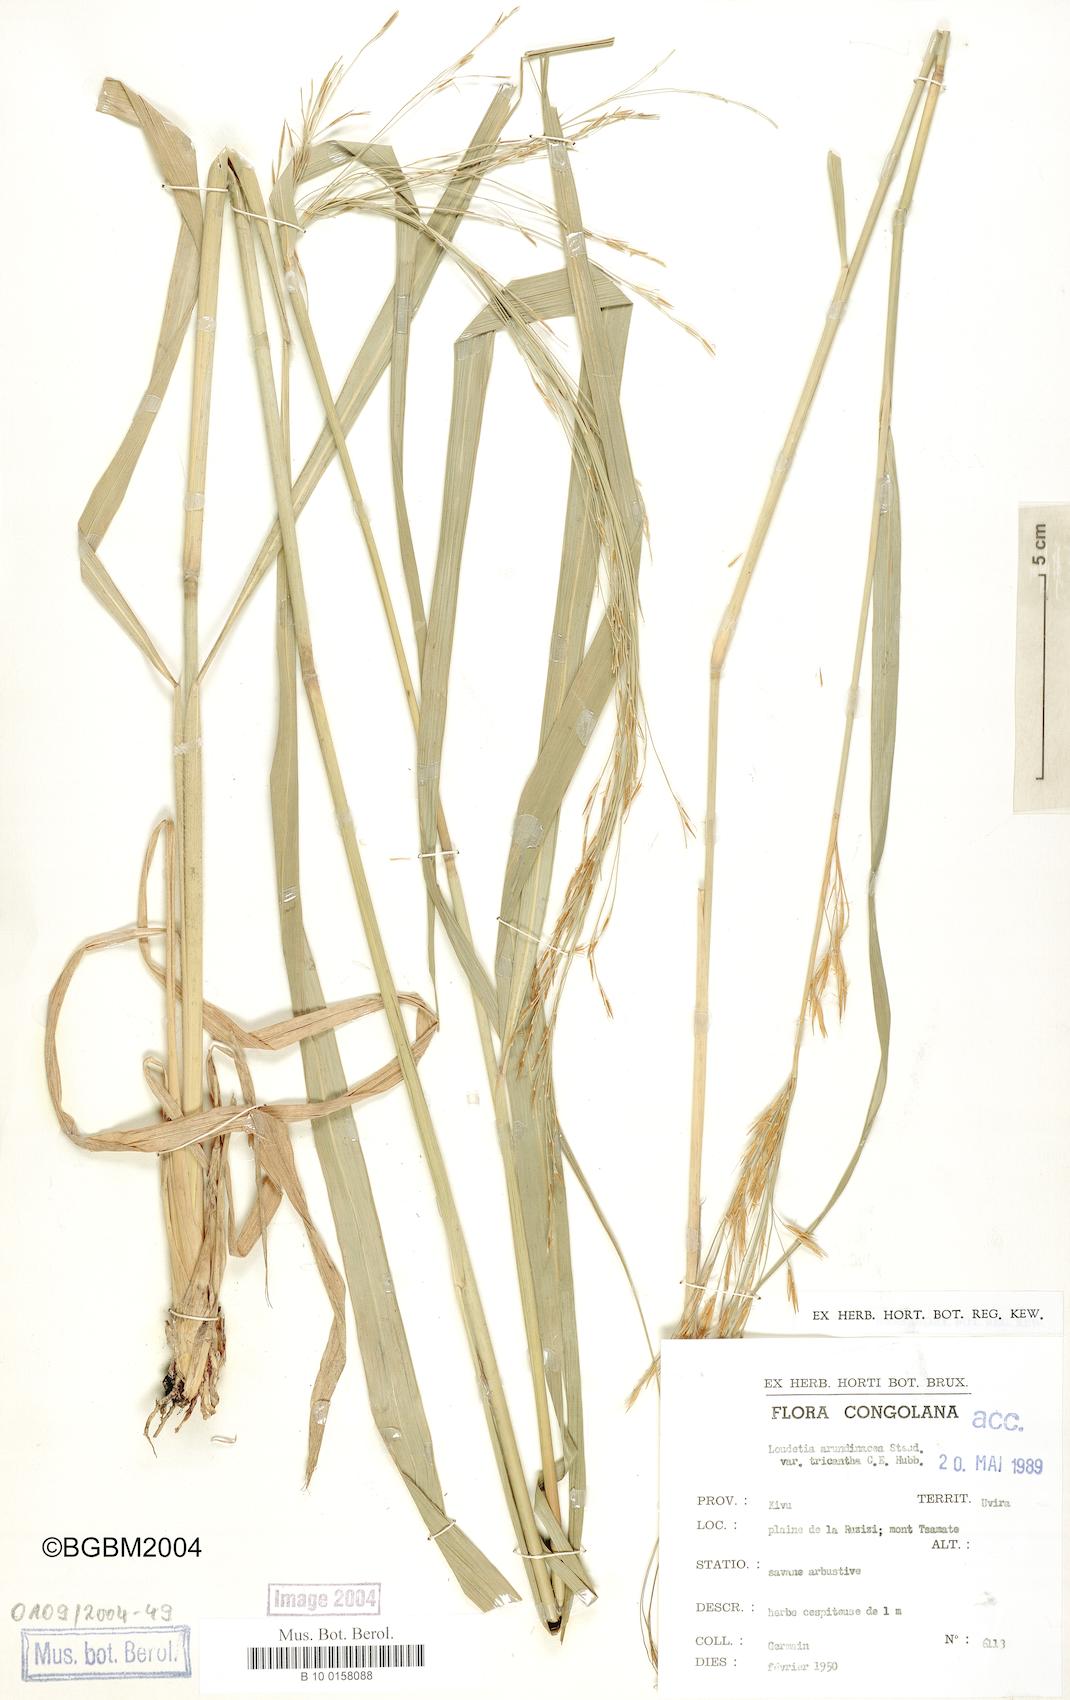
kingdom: Plantae
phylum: Tracheophyta
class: Liliopsida
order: Poales
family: Poaceae
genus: Loudetia
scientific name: Loudetia arundinacea
